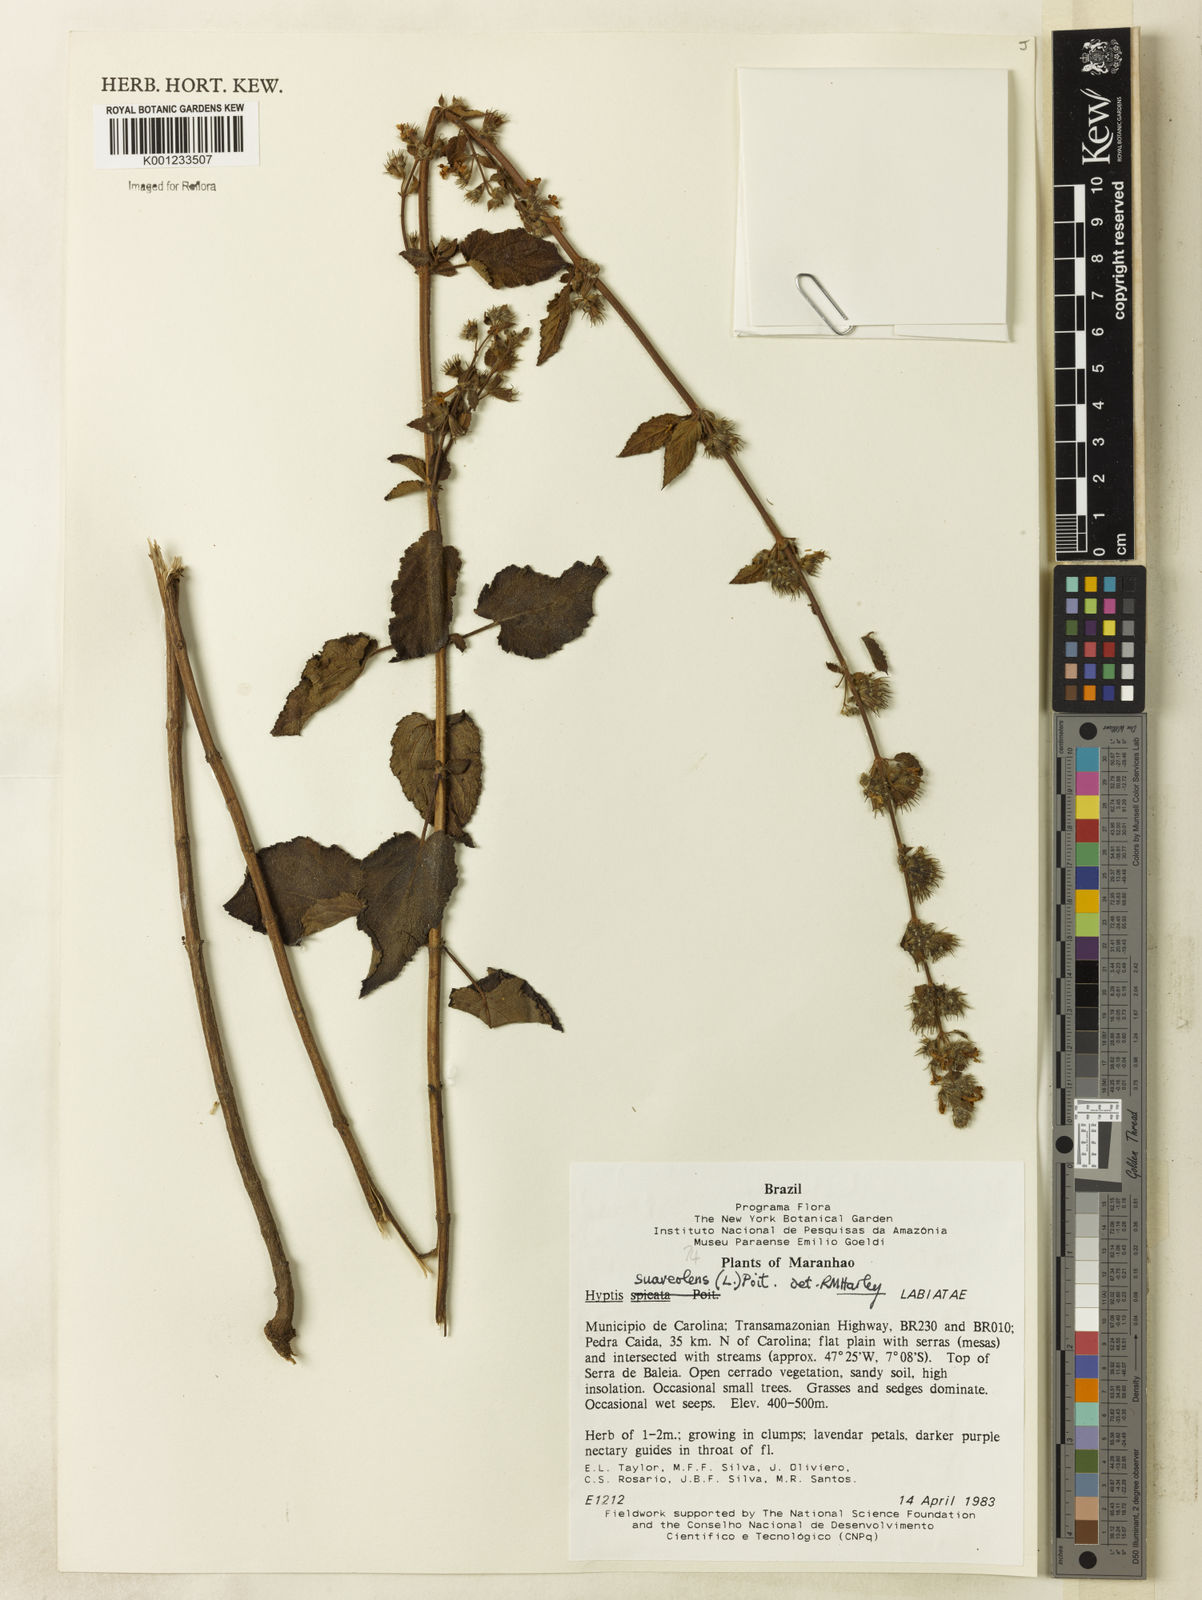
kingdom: Plantae
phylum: Tracheophyta
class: Magnoliopsida
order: Lamiales
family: Lamiaceae
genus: Mesosphaerum
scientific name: Mesosphaerum suaveolens
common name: Pignut
